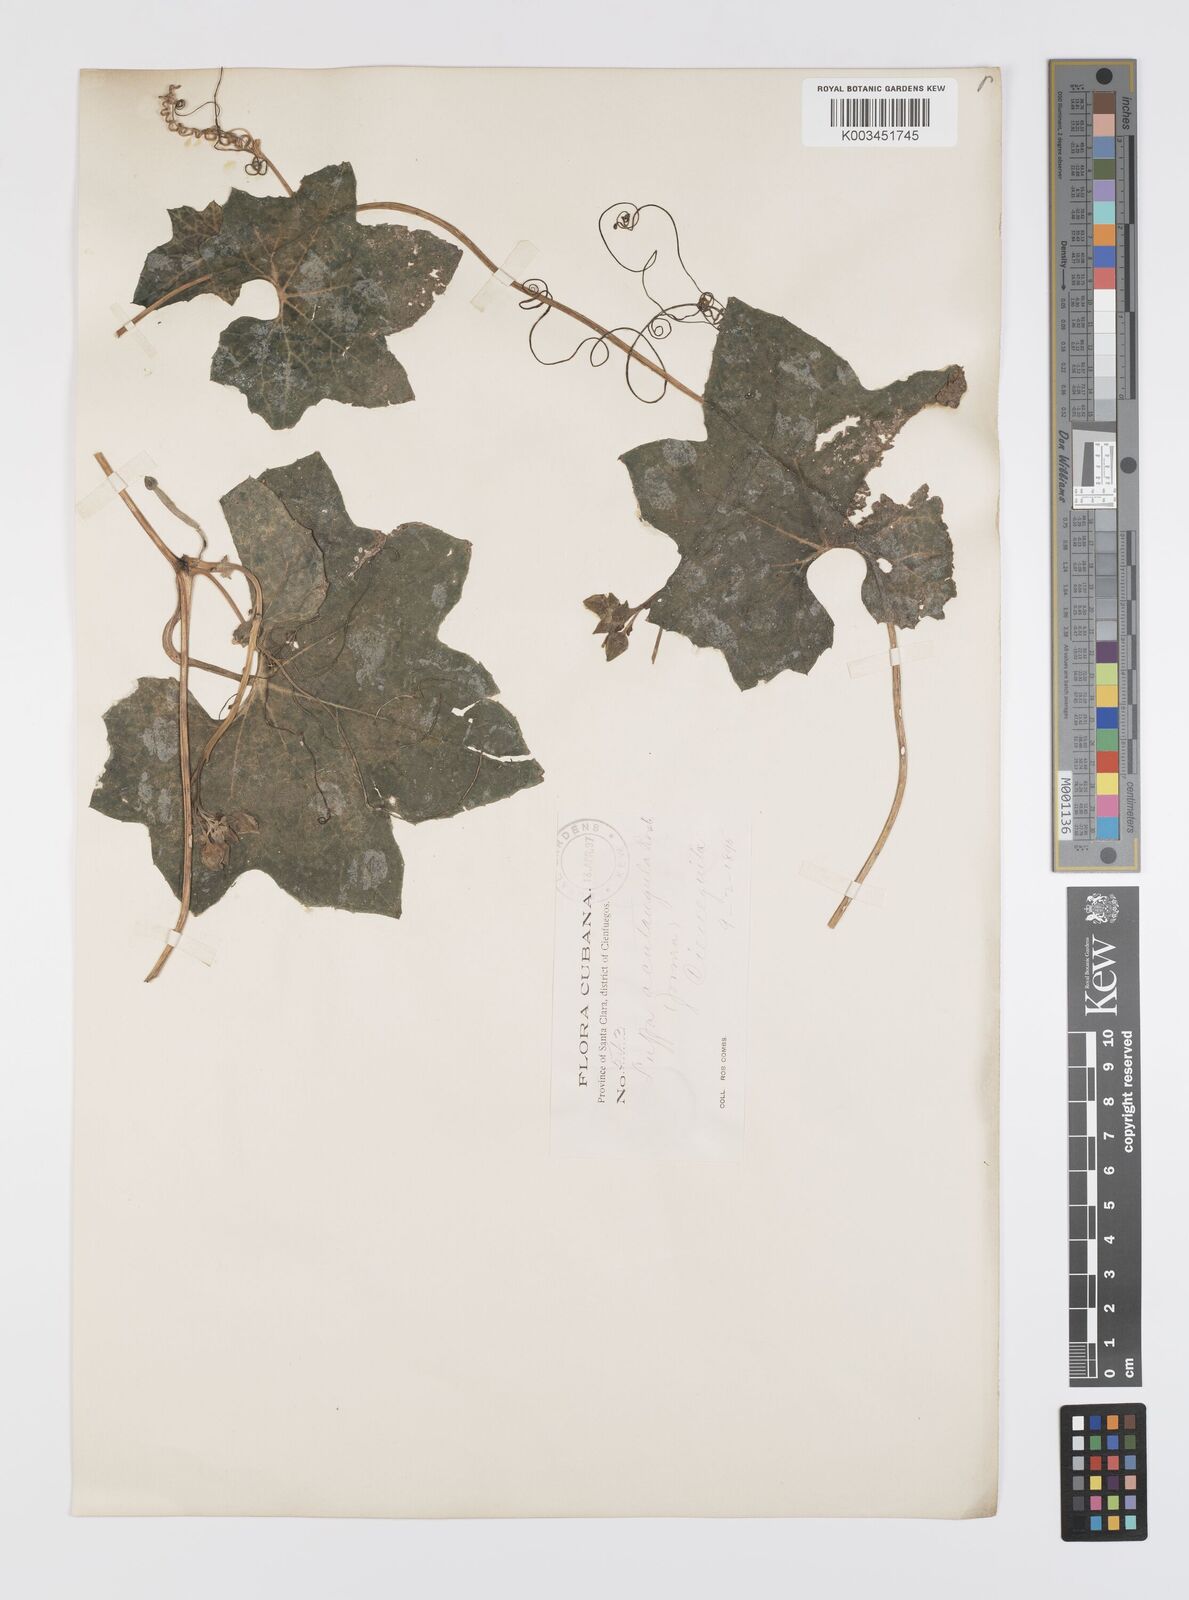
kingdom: Plantae
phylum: Tracheophyta
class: Magnoliopsida
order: Cucurbitales
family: Cucurbitaceae
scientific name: Cucurbitaceae
